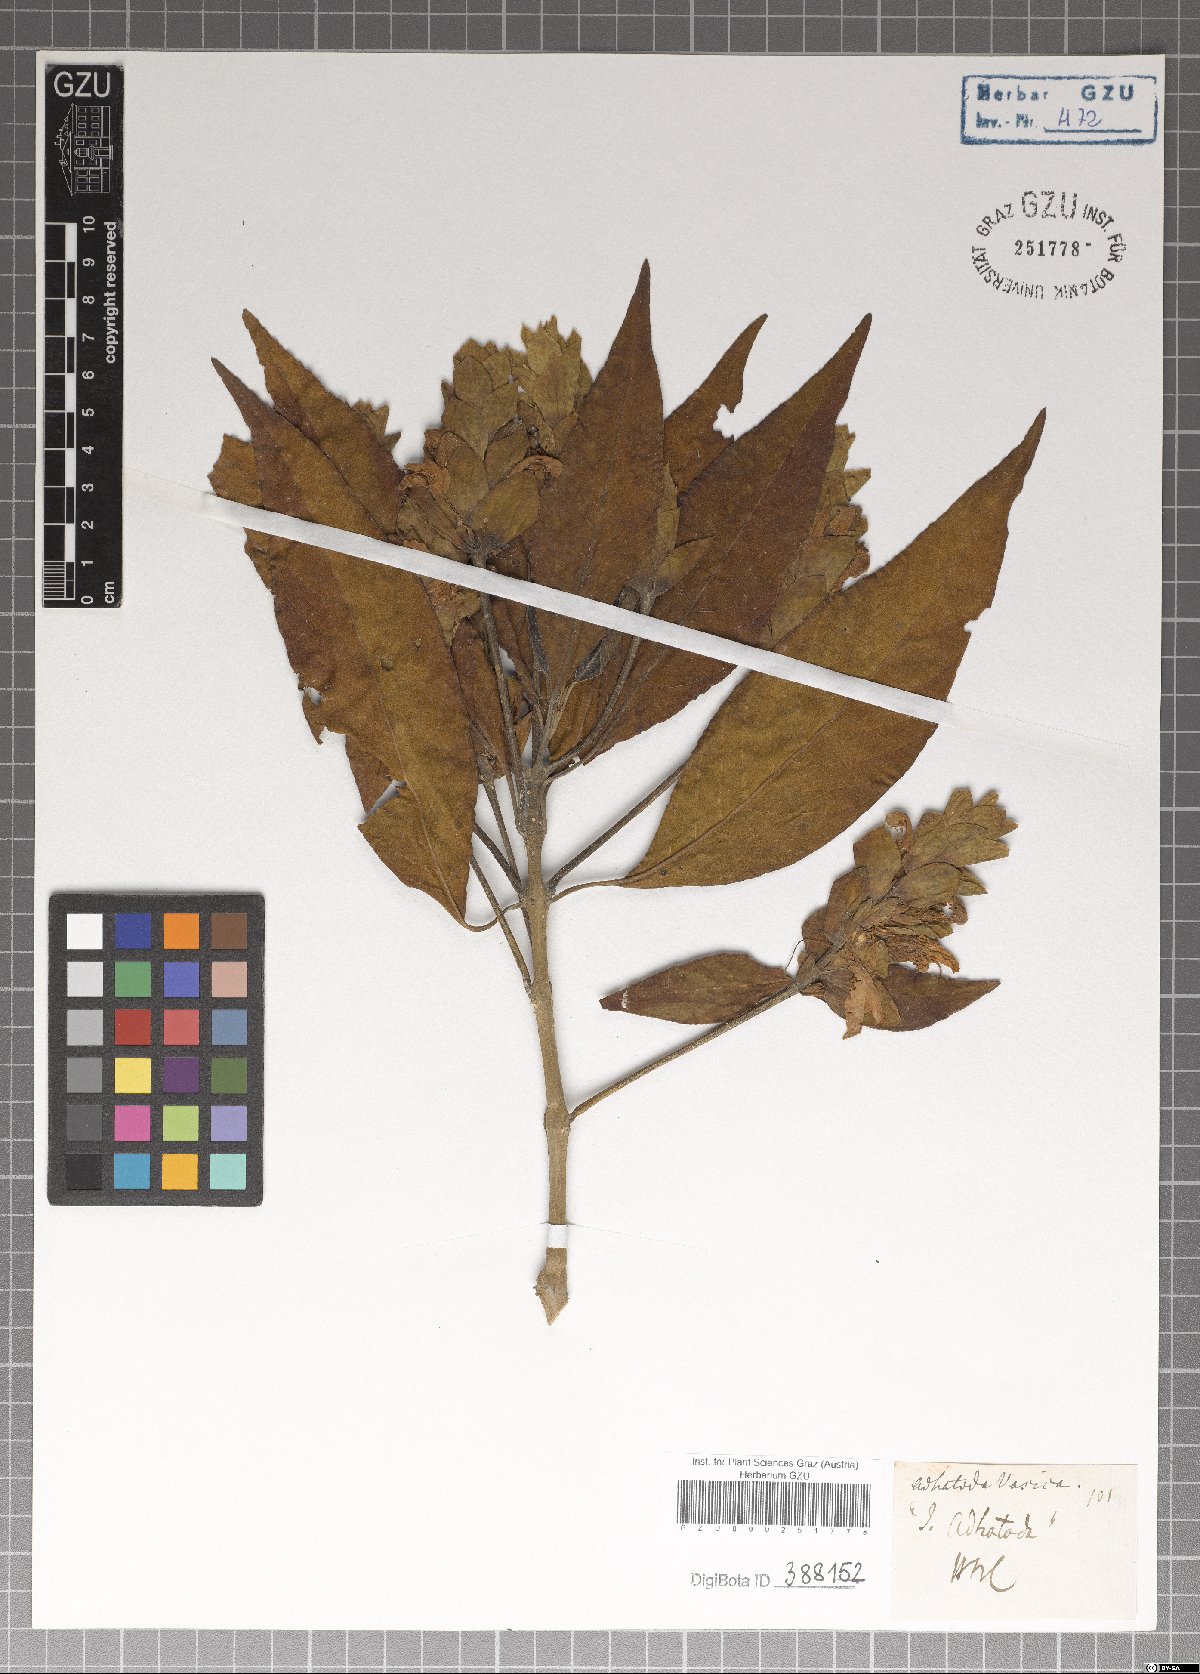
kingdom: Plantae
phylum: Tracheophyta
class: Magnoliopsida
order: Lamiales
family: Acanthaceae
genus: Justicia
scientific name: Justicia adhatoda
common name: Malabar nut
